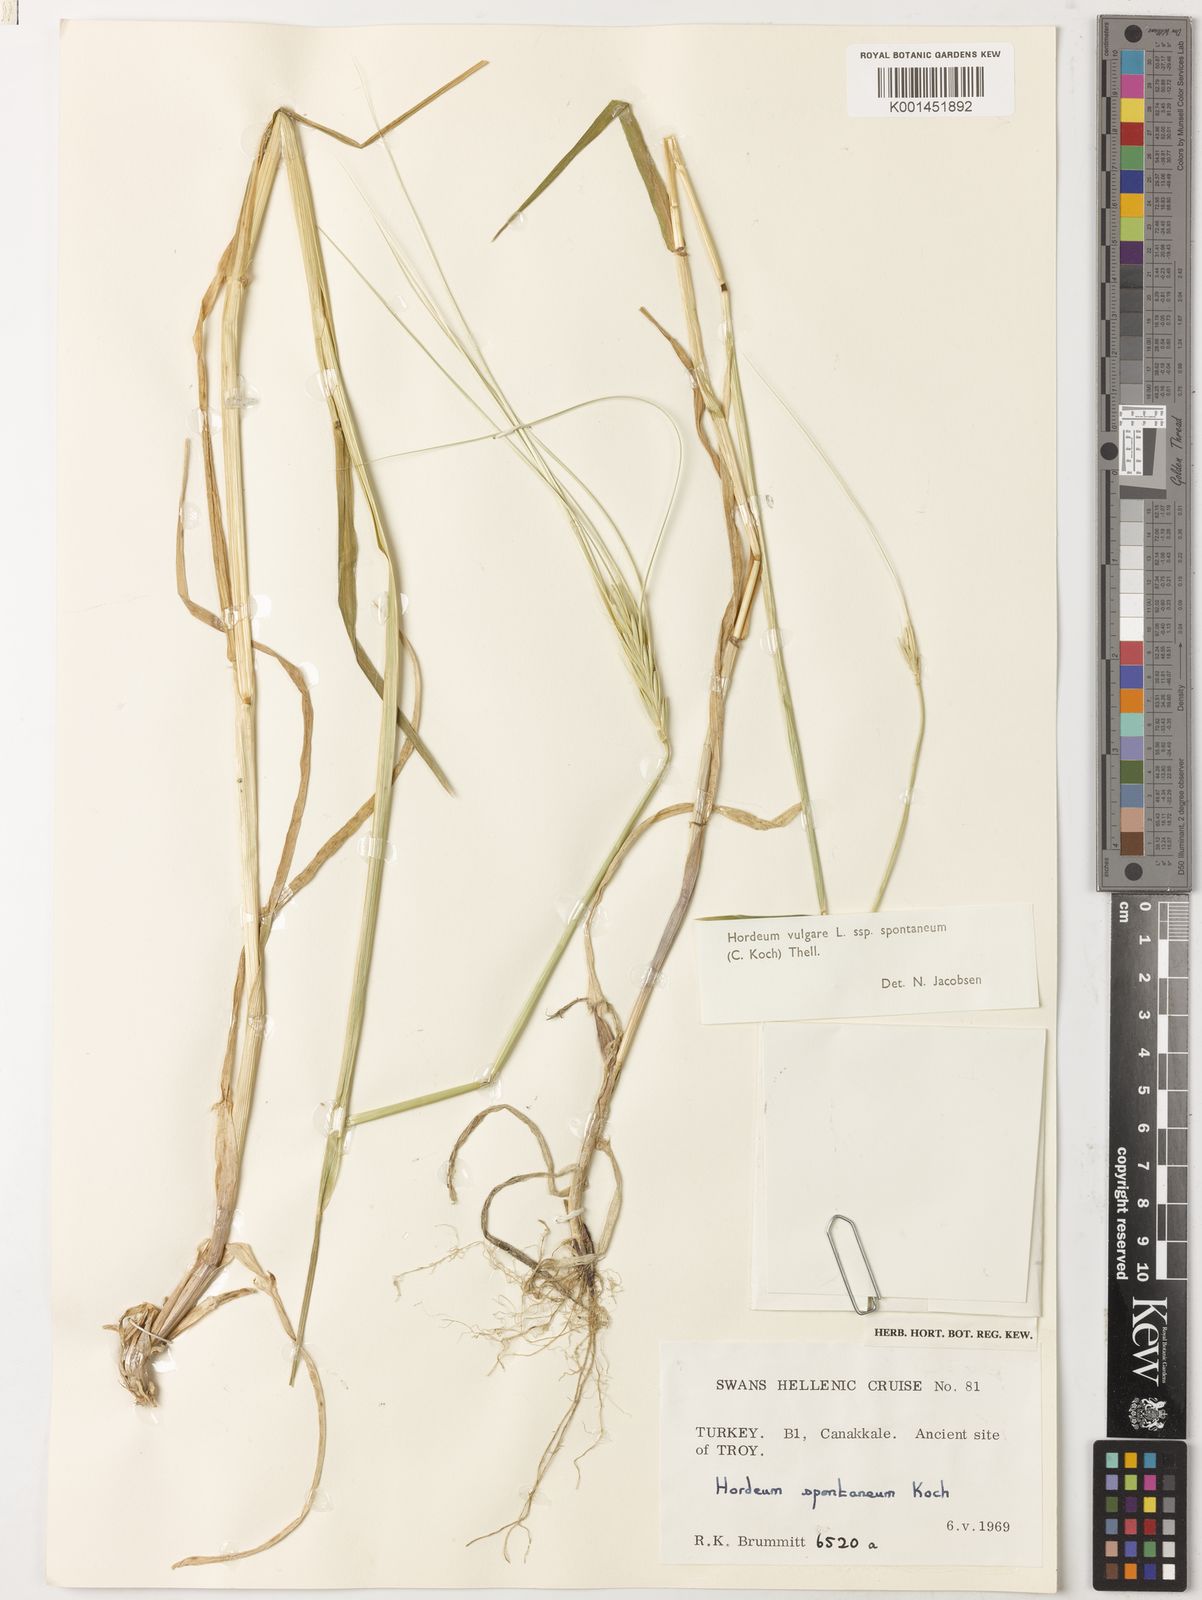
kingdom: Plantae
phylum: Tracheophyta
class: Liliopsida
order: Poales
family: Poaceae
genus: Hordeum
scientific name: Hordeum spontaneum
